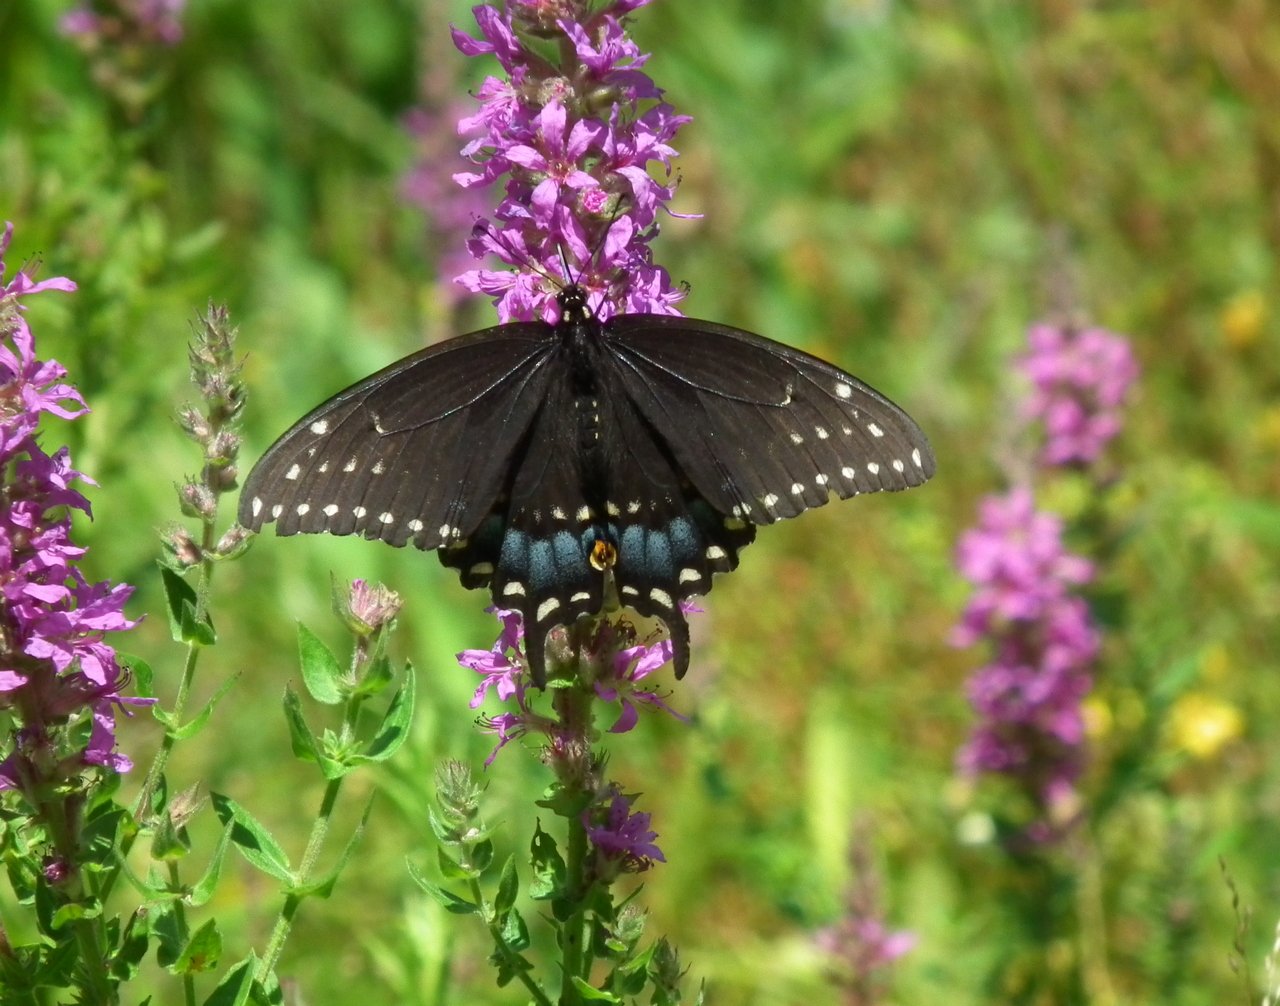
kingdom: Animalia
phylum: Arthropoda
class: Insecta
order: Lepidoptera
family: Papilionidae
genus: Papilio
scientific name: Papilio polyxenes
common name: Black Swallowtail
